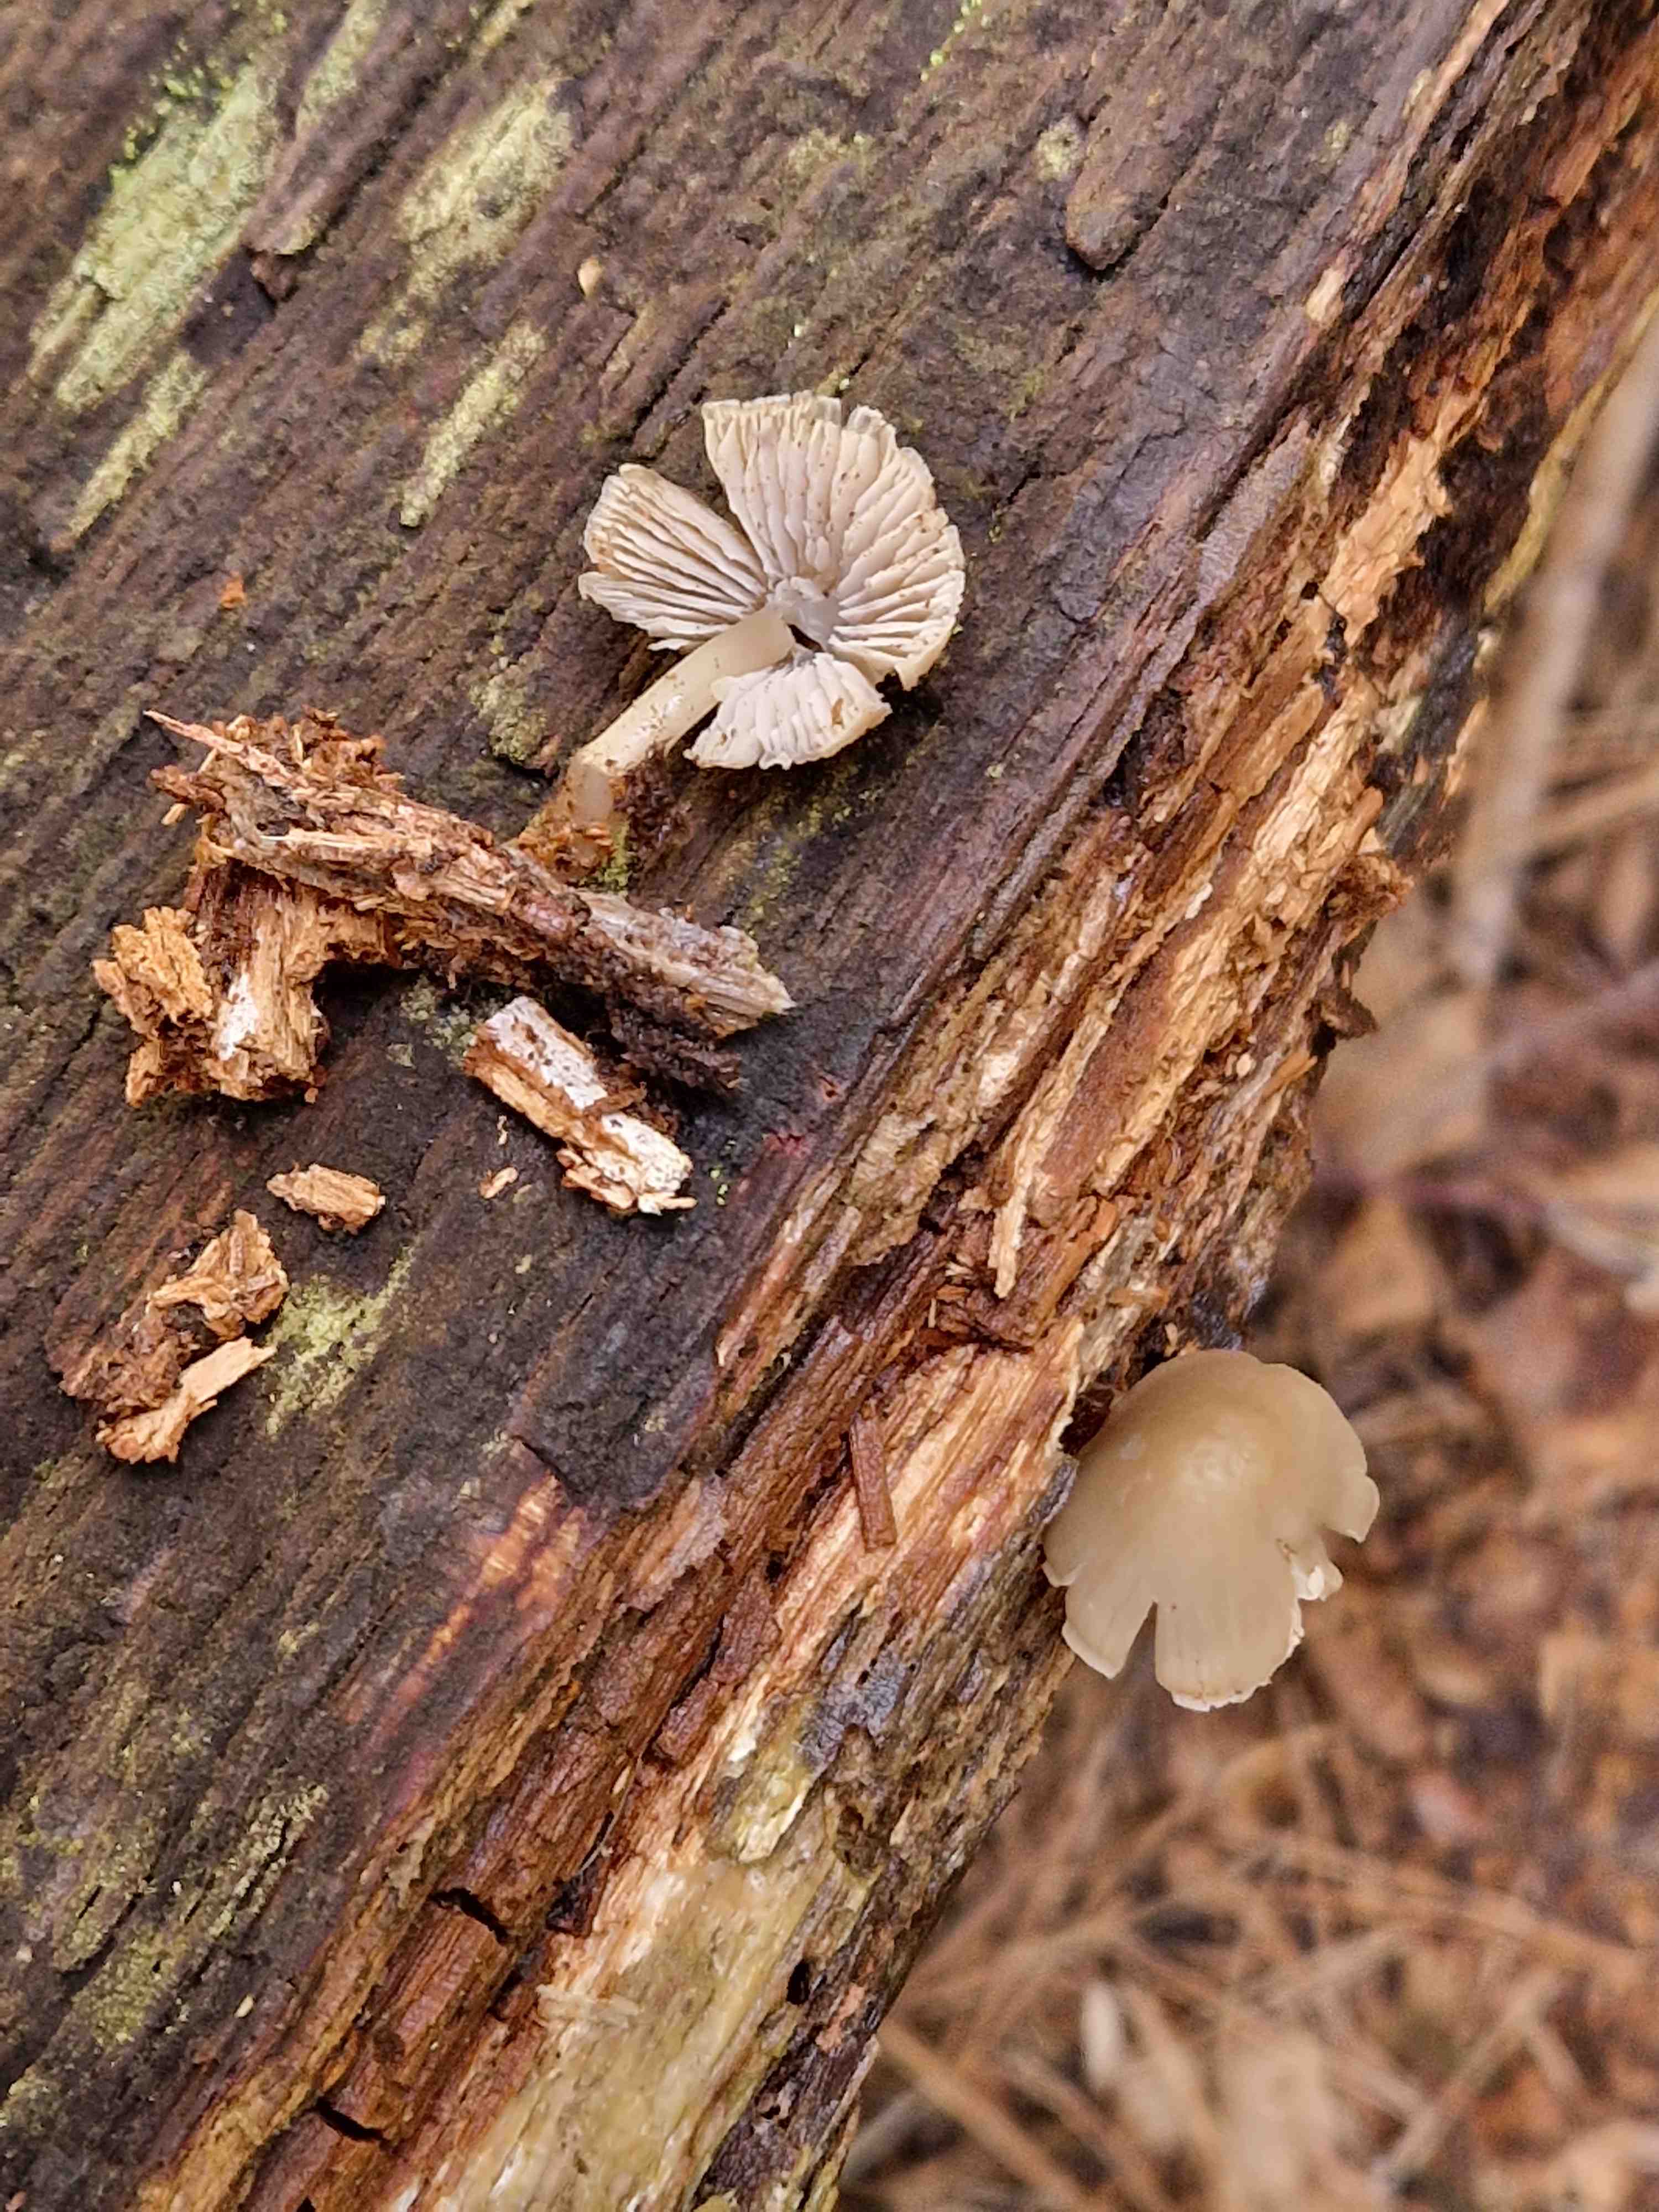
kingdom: Fungi
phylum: Basidiomycota
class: Agaricomycetes
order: Agaricales
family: Mycenaceae
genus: Mycena
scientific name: Mycena galericulata
